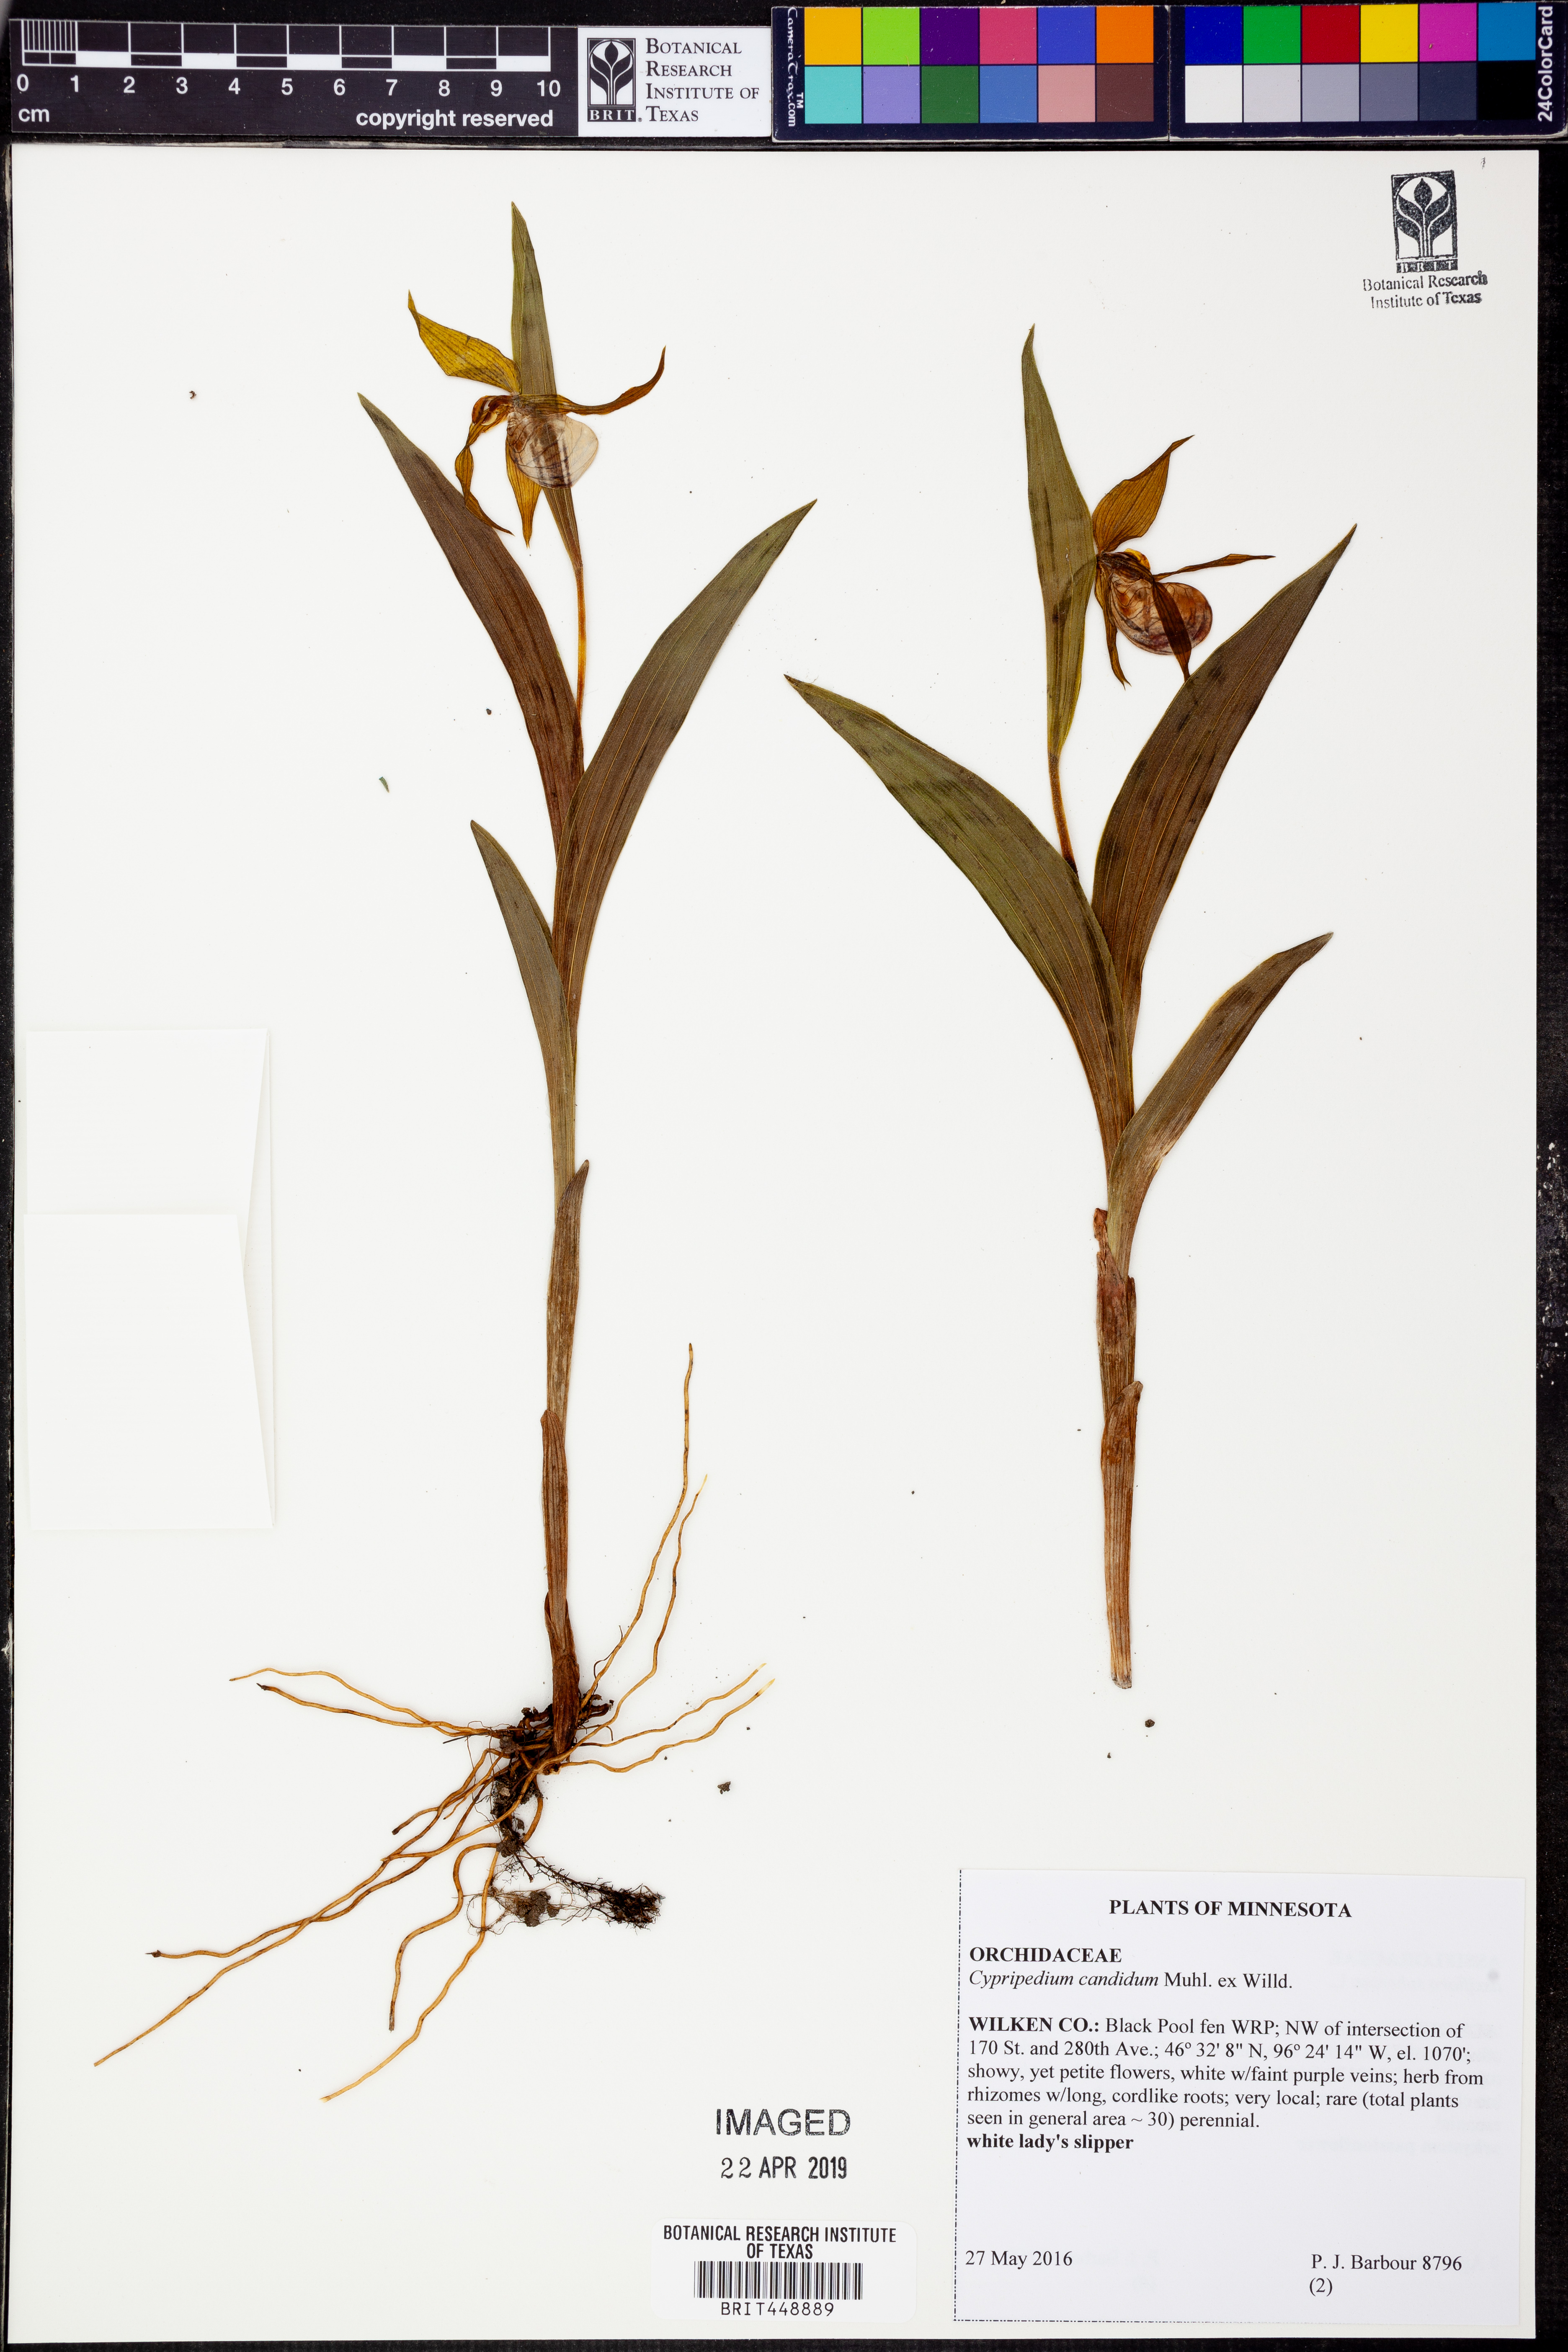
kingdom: Plantae
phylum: Tracheophyta
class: Liliopsida
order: Asparagales
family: Orchidaceae
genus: Cypripedium
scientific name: Cypripedium candidum
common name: White lady's-slipper
